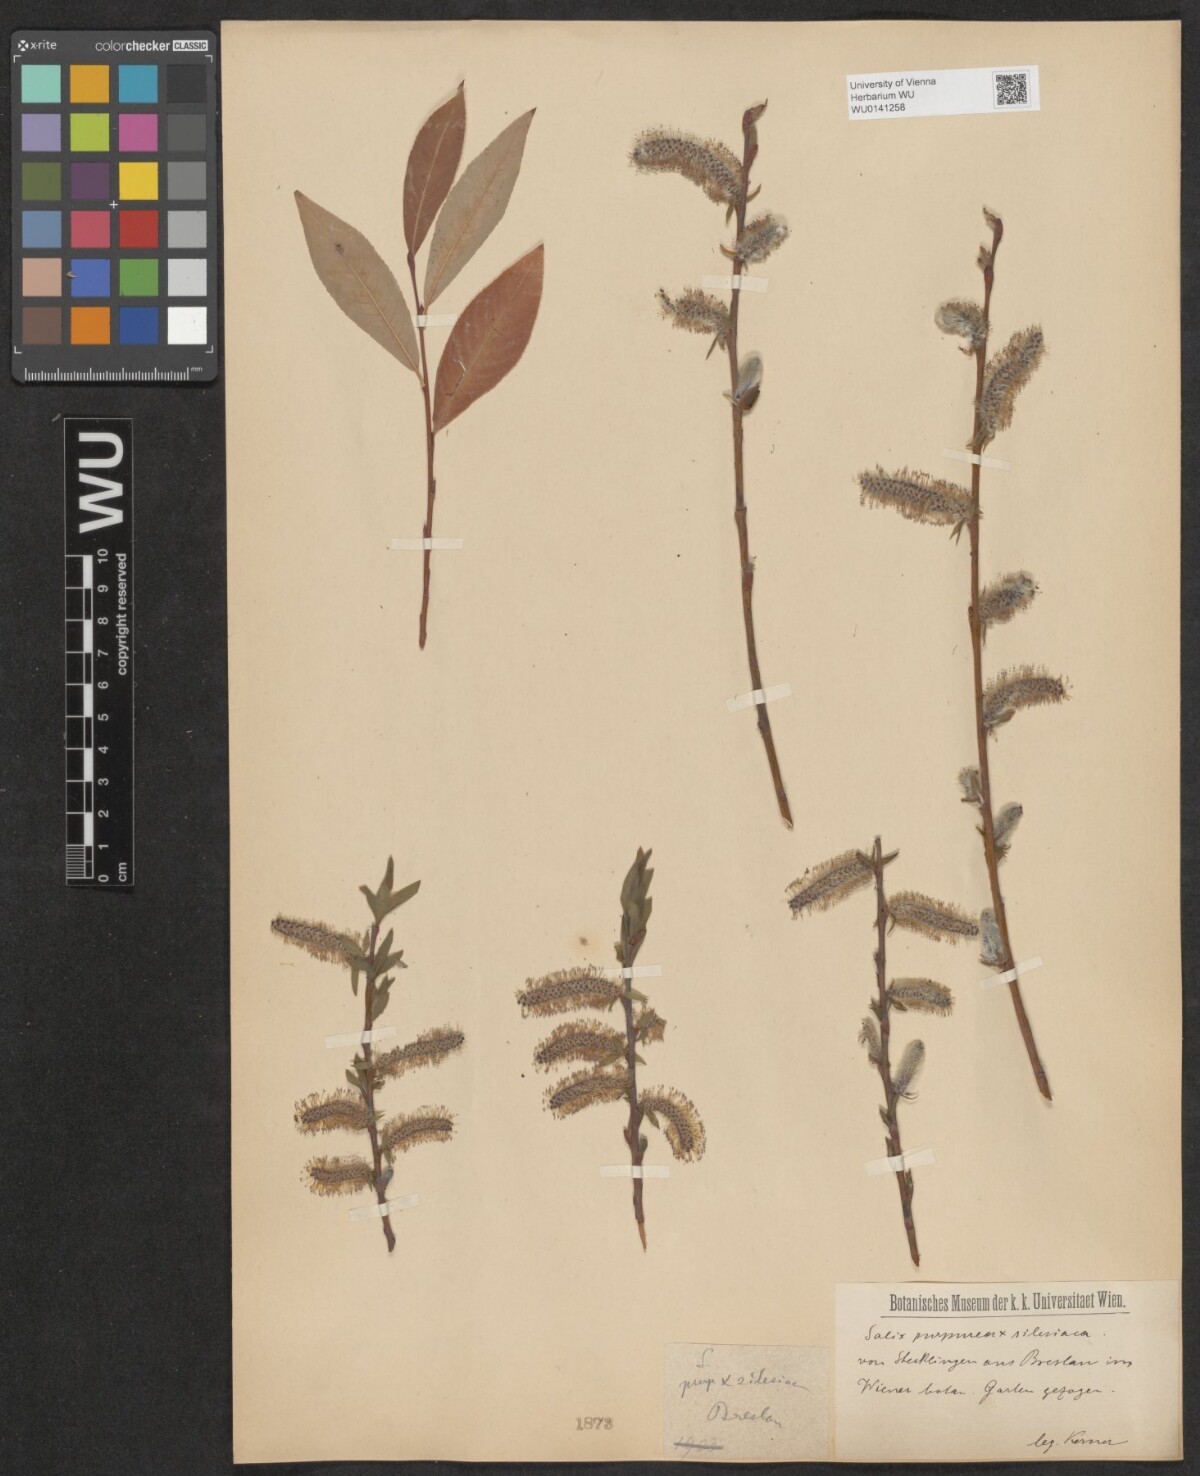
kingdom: Plantae
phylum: Tracheophyta
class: Magnoliopsida
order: Malpighiales
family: Salicaceae
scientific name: Salicaceae
